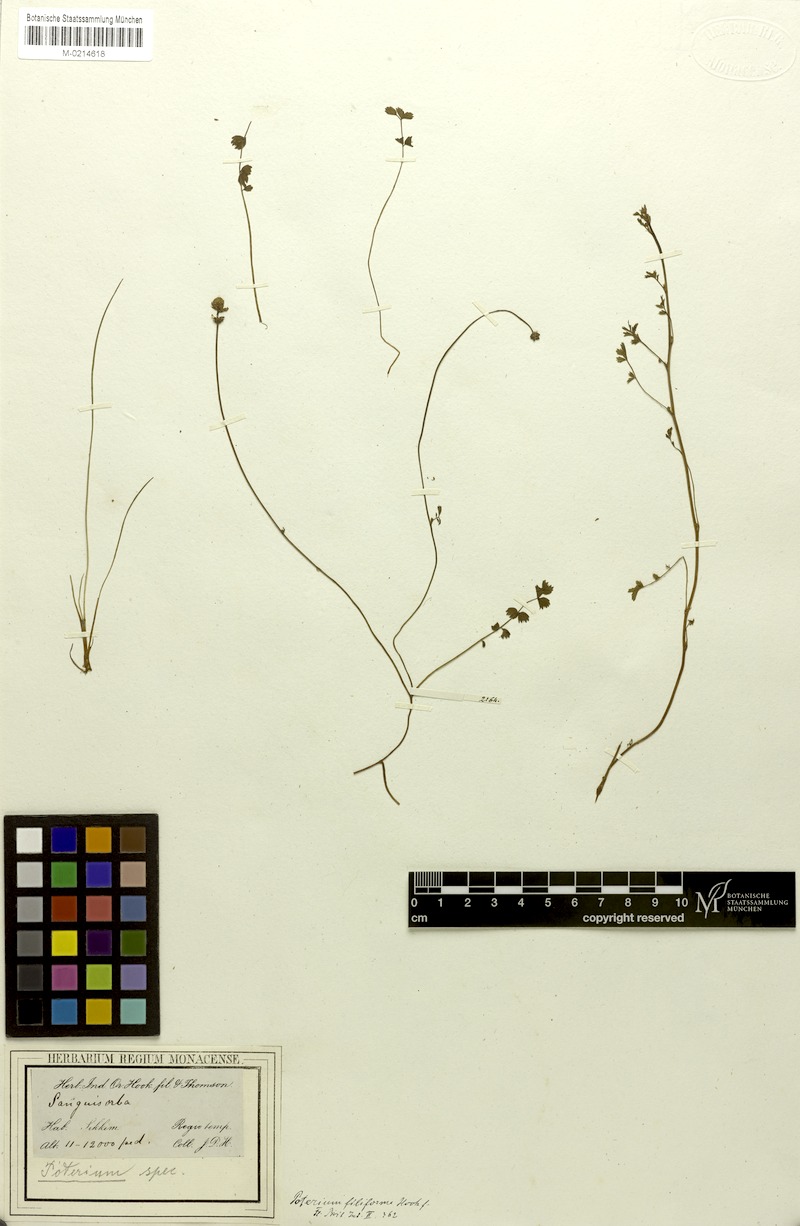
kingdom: Plantae
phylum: Tracheophyta
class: Magnoliopsida
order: Rosales
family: Rosaceae
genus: Poterium
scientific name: Poterium filiforme
